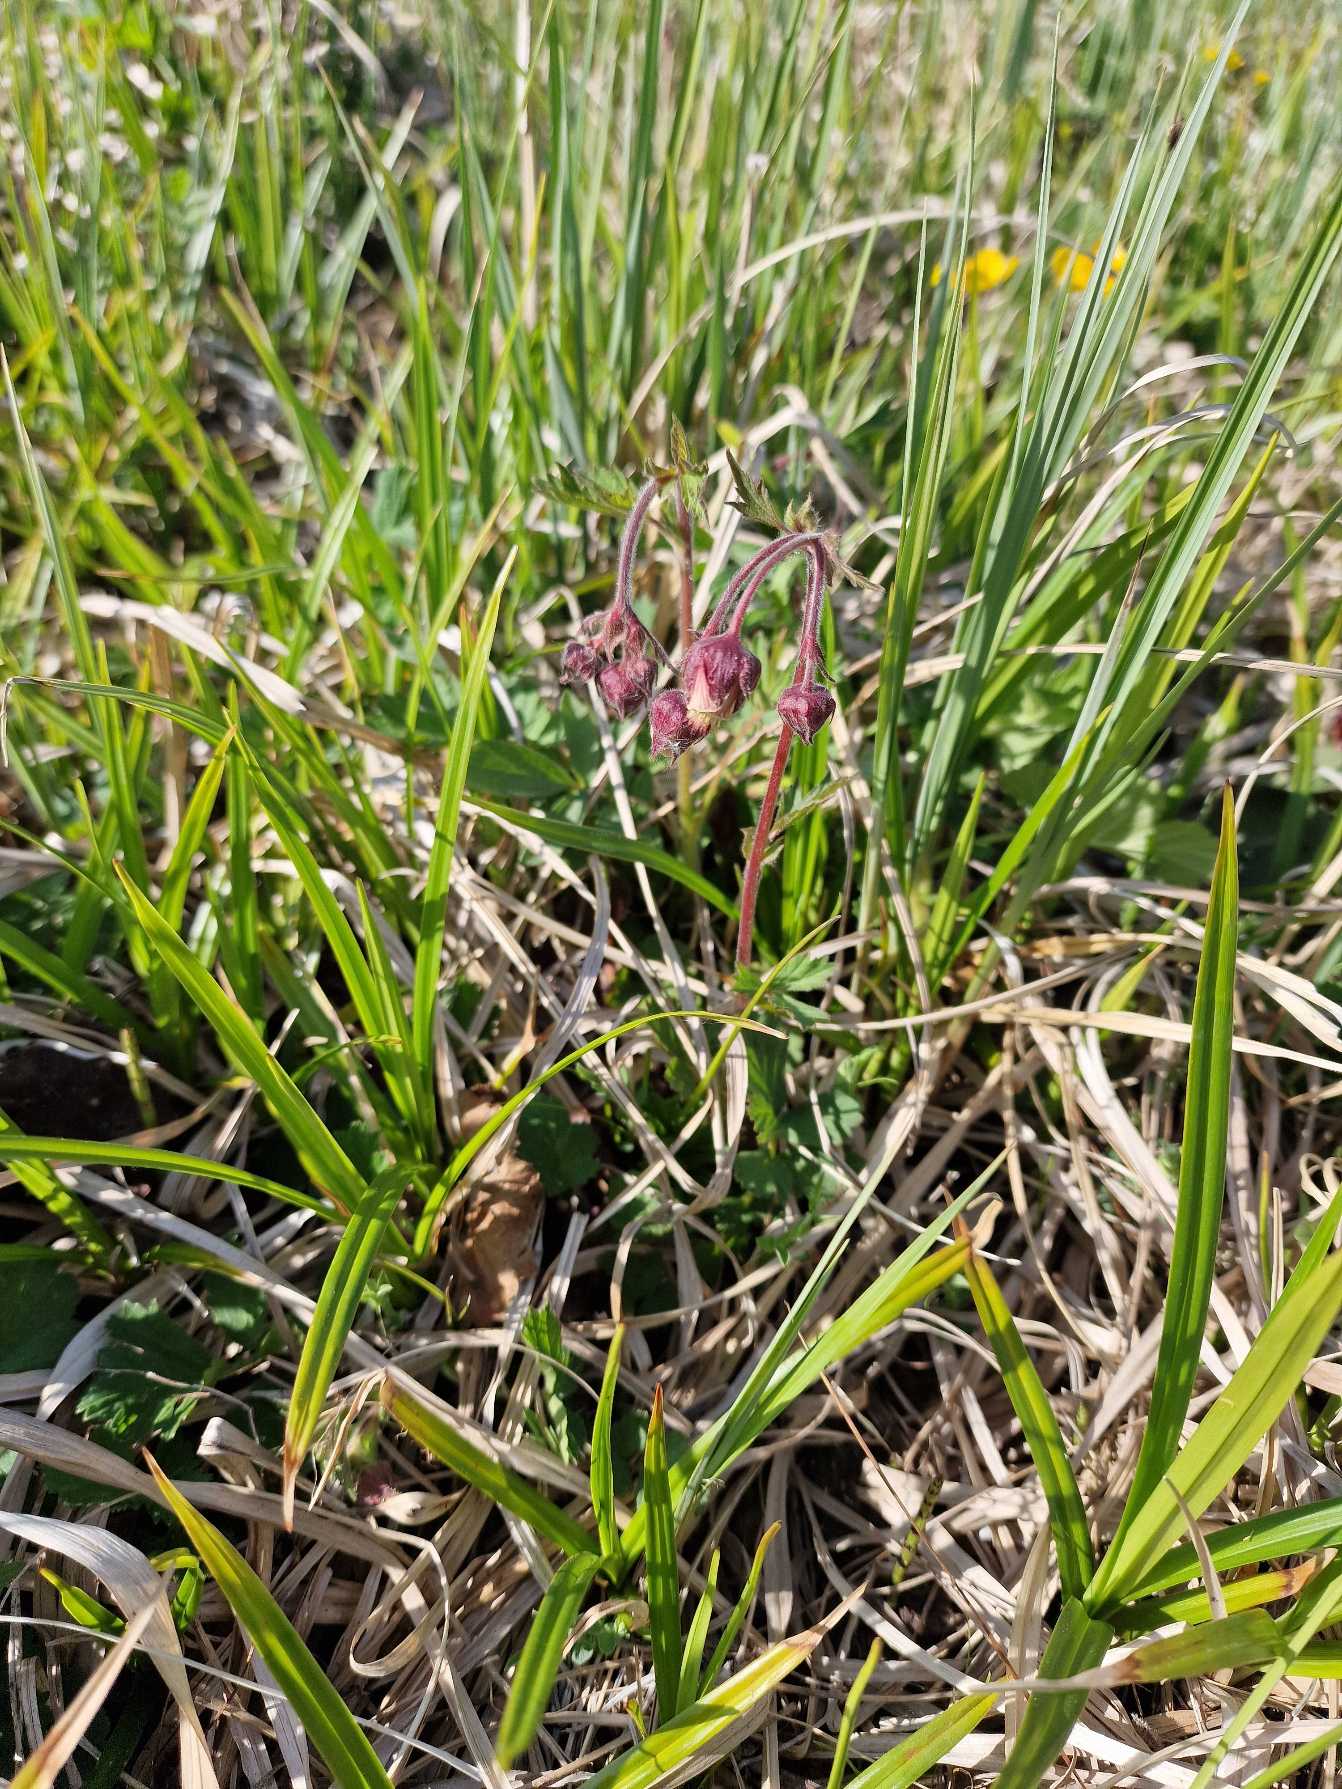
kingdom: Plantae
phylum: Tracheophyta
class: Magnoliopsida
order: Rosales
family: Rosaceae
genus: Geum
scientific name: Geum rivale
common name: Eng-nellikerod
